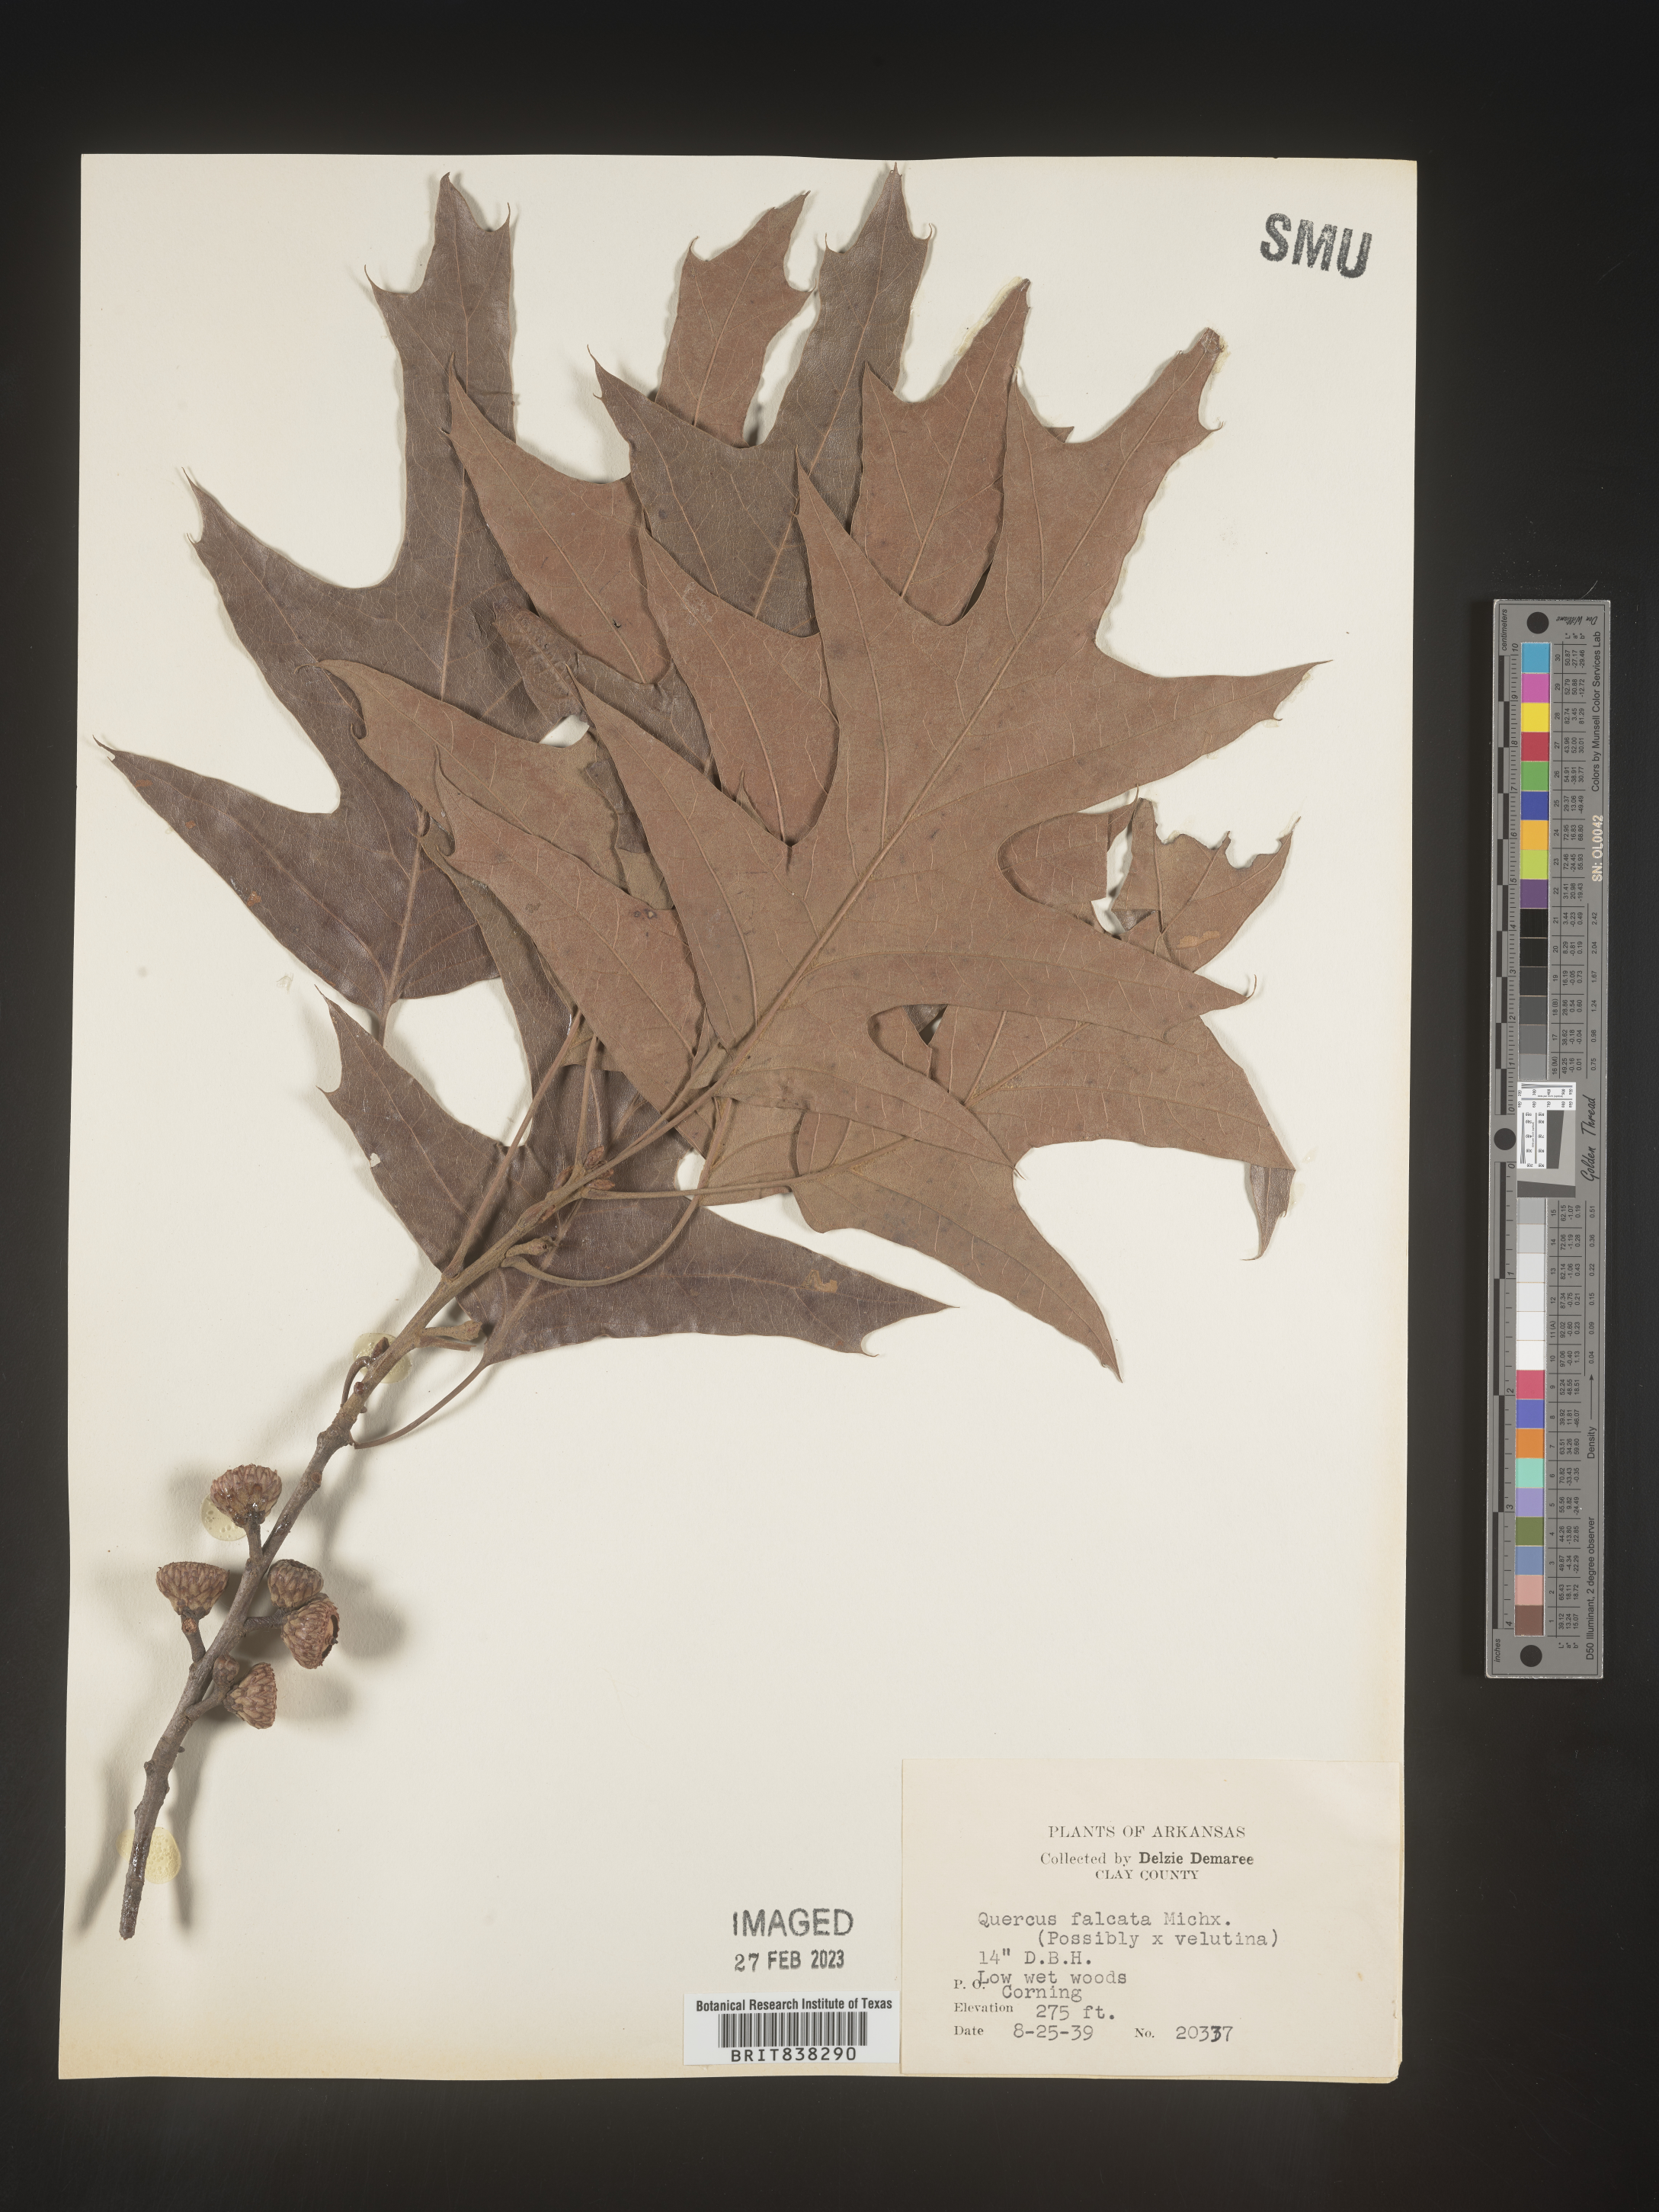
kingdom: Plantae
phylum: Tracheophyta
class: Magnoliopsida
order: Fagales
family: Fagaceae
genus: Quercus
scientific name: Quercus falcata
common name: Southern red oak
